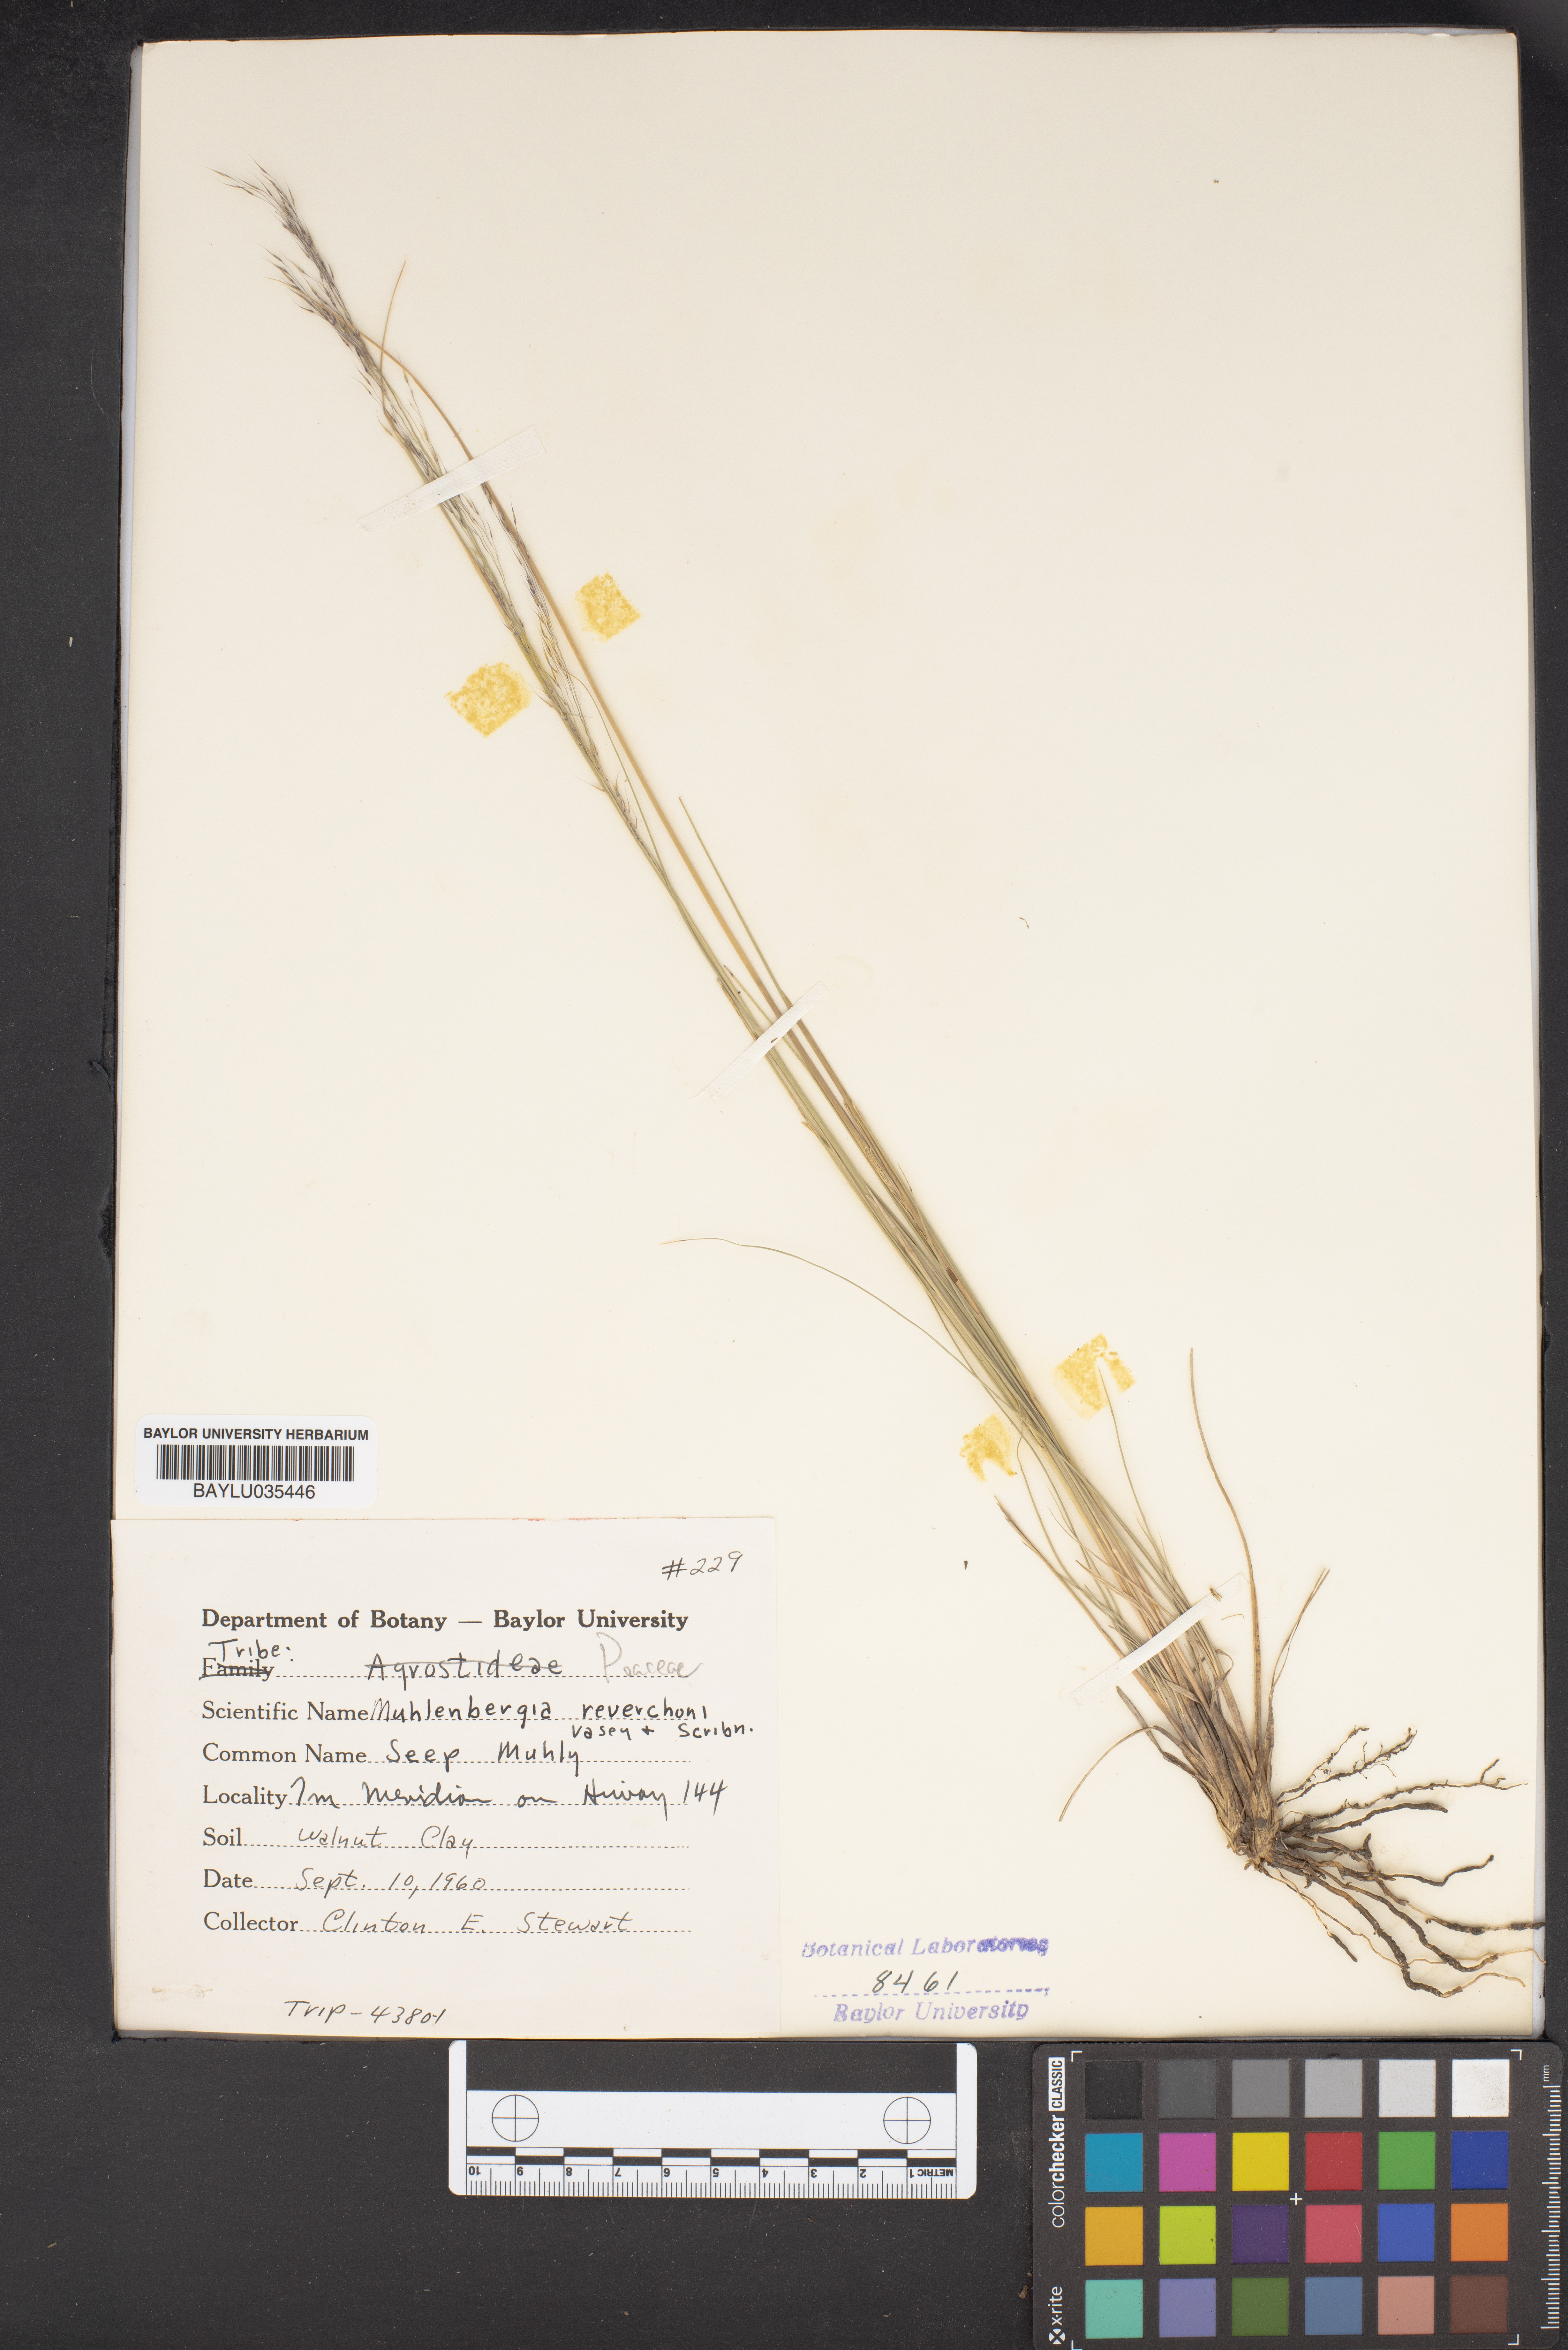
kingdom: Plantae
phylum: Tracheophyta
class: Liliopsida
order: Poales
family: Poaceae
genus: Muhlenbergia
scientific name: Muhlenbergia reverchonii
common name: Seep muhly
